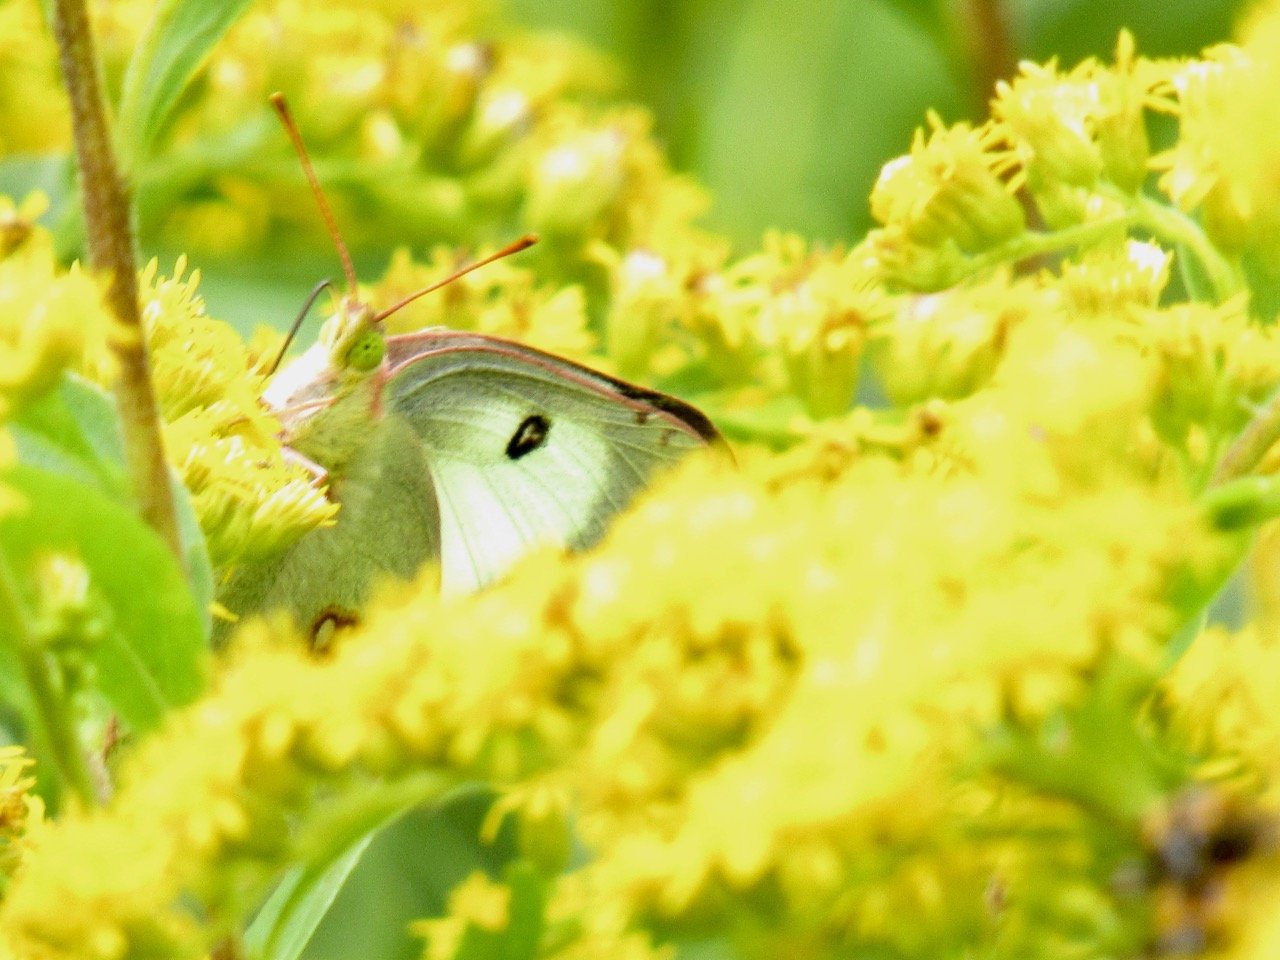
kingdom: Animalia
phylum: Arthropoda
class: Insecta
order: Lepidoptera
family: Pieridae
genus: Colias
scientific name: Colias philodice
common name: Clouded Sulphur
